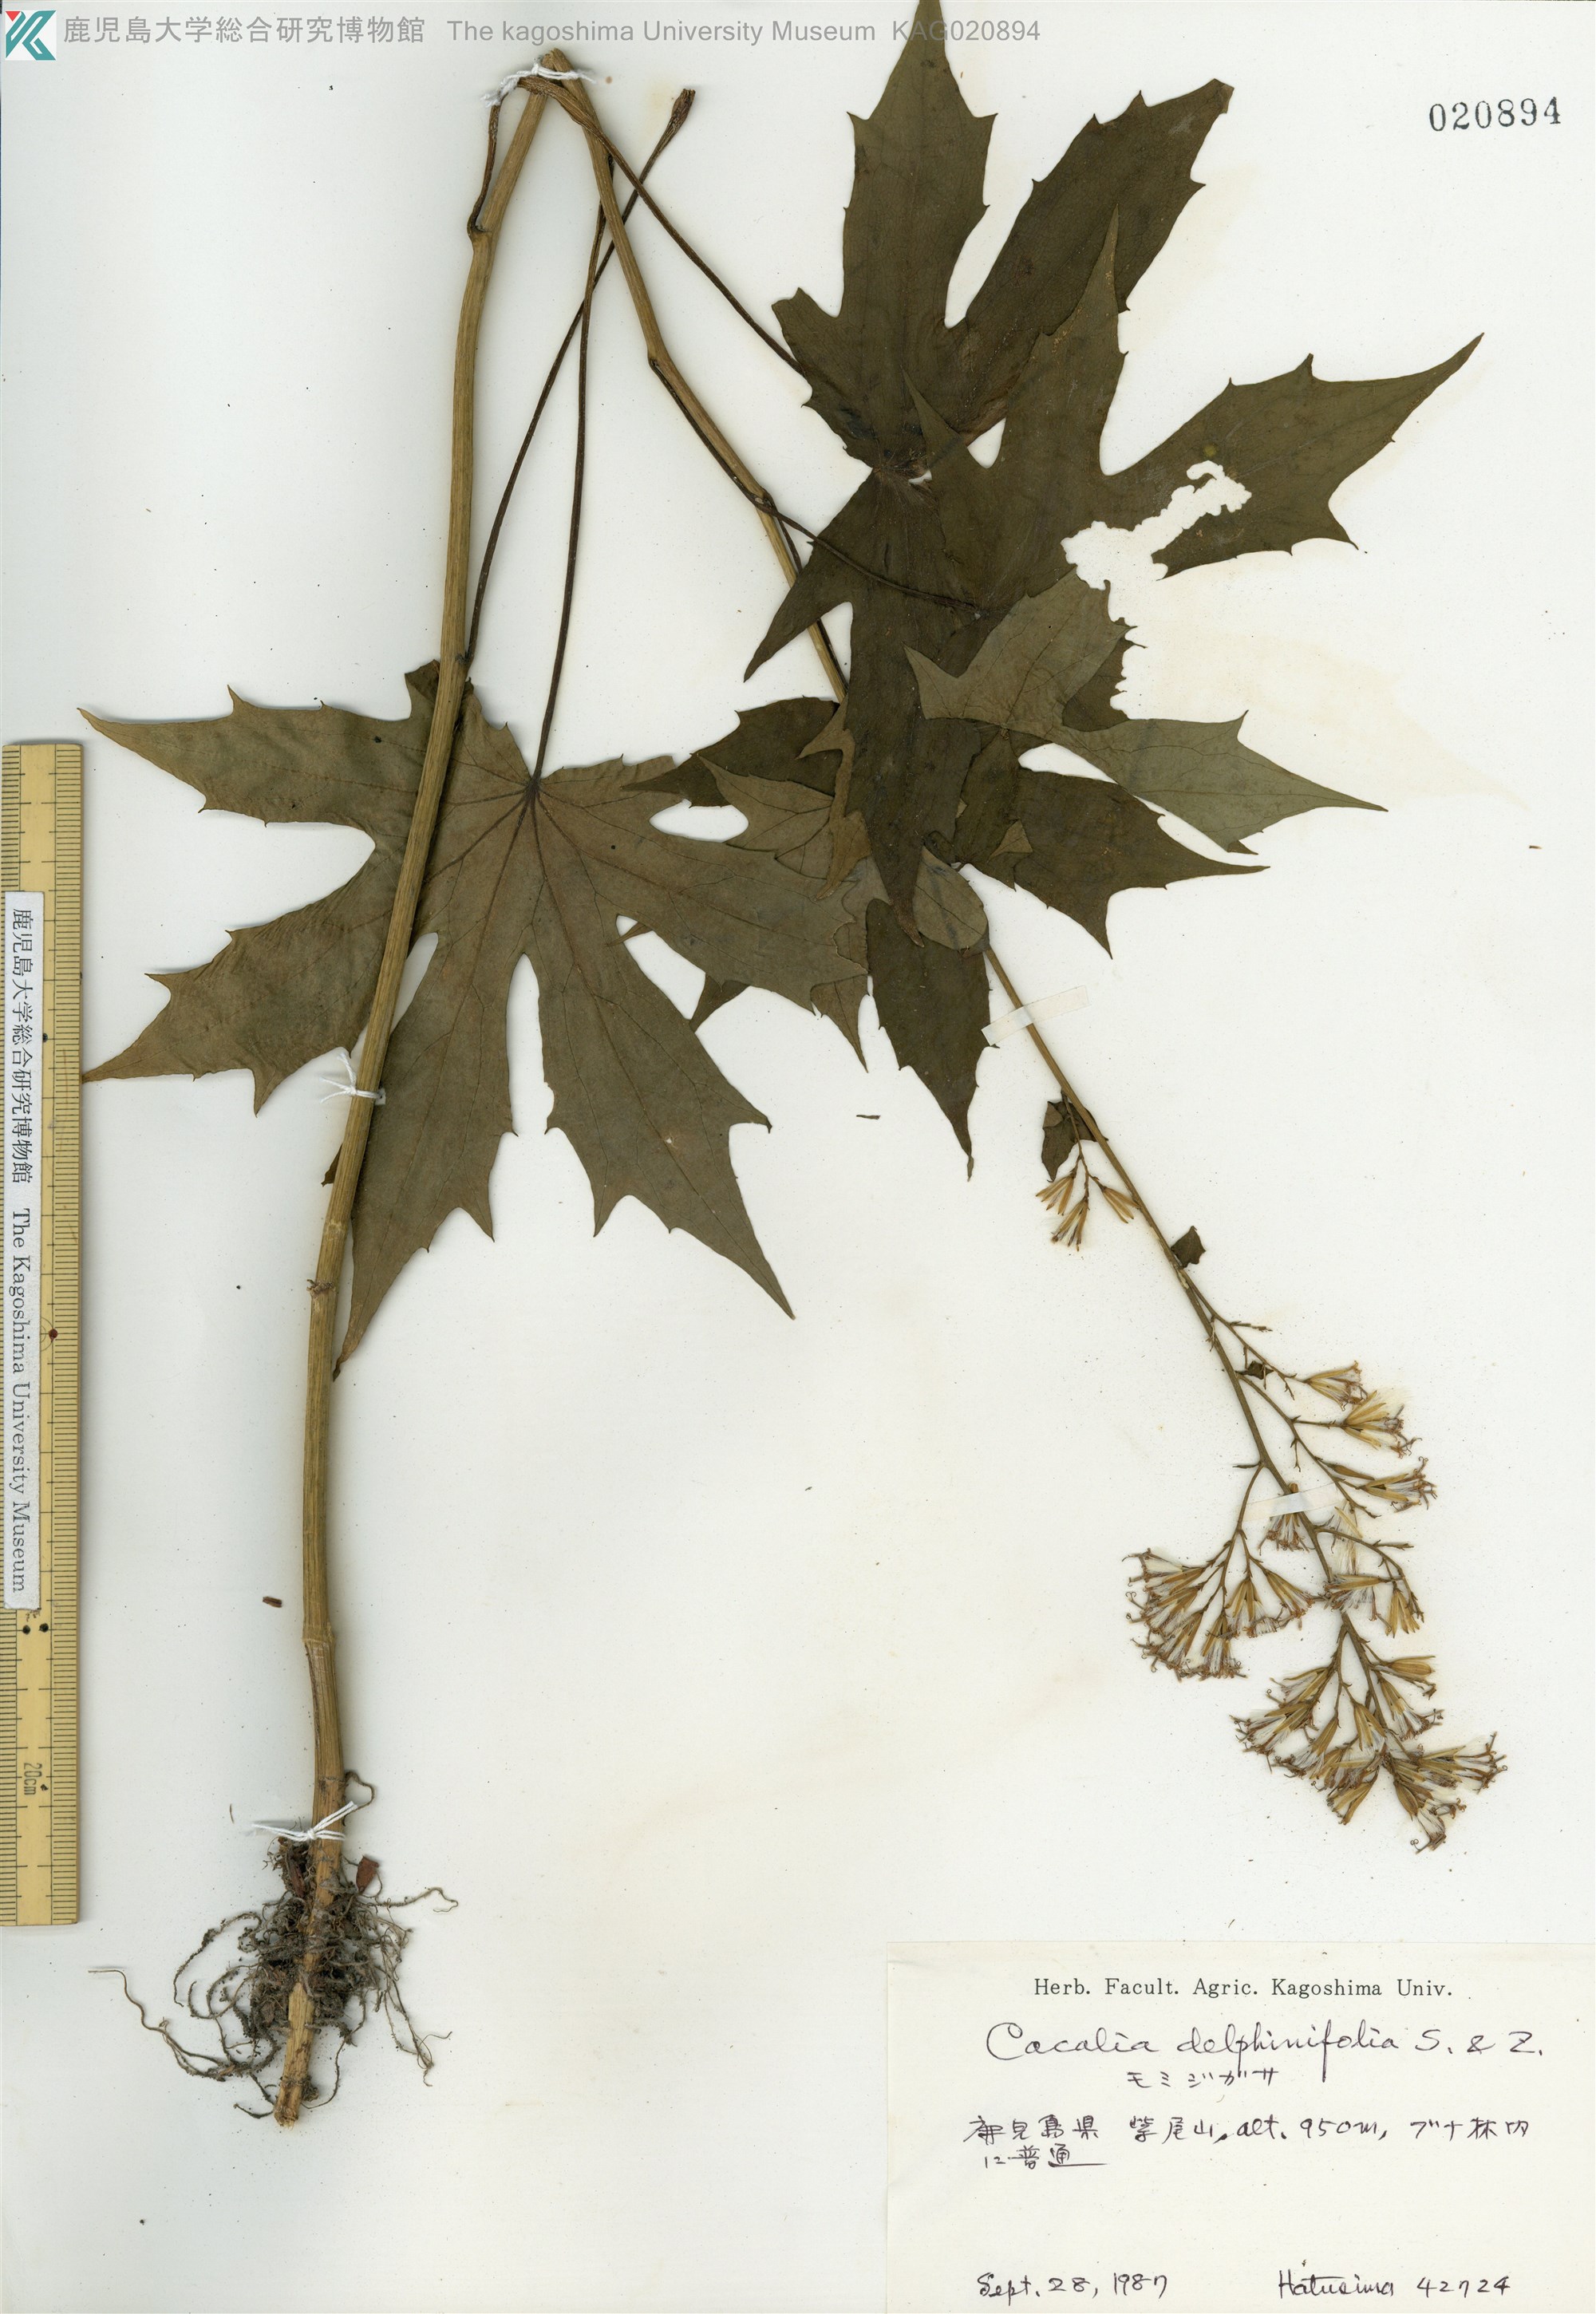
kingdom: Plantae
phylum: Tracheophyta
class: Magnoliopsida
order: Asterales
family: Asteraceae
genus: Japonicalia
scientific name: Japonicalia delphiniifolia
